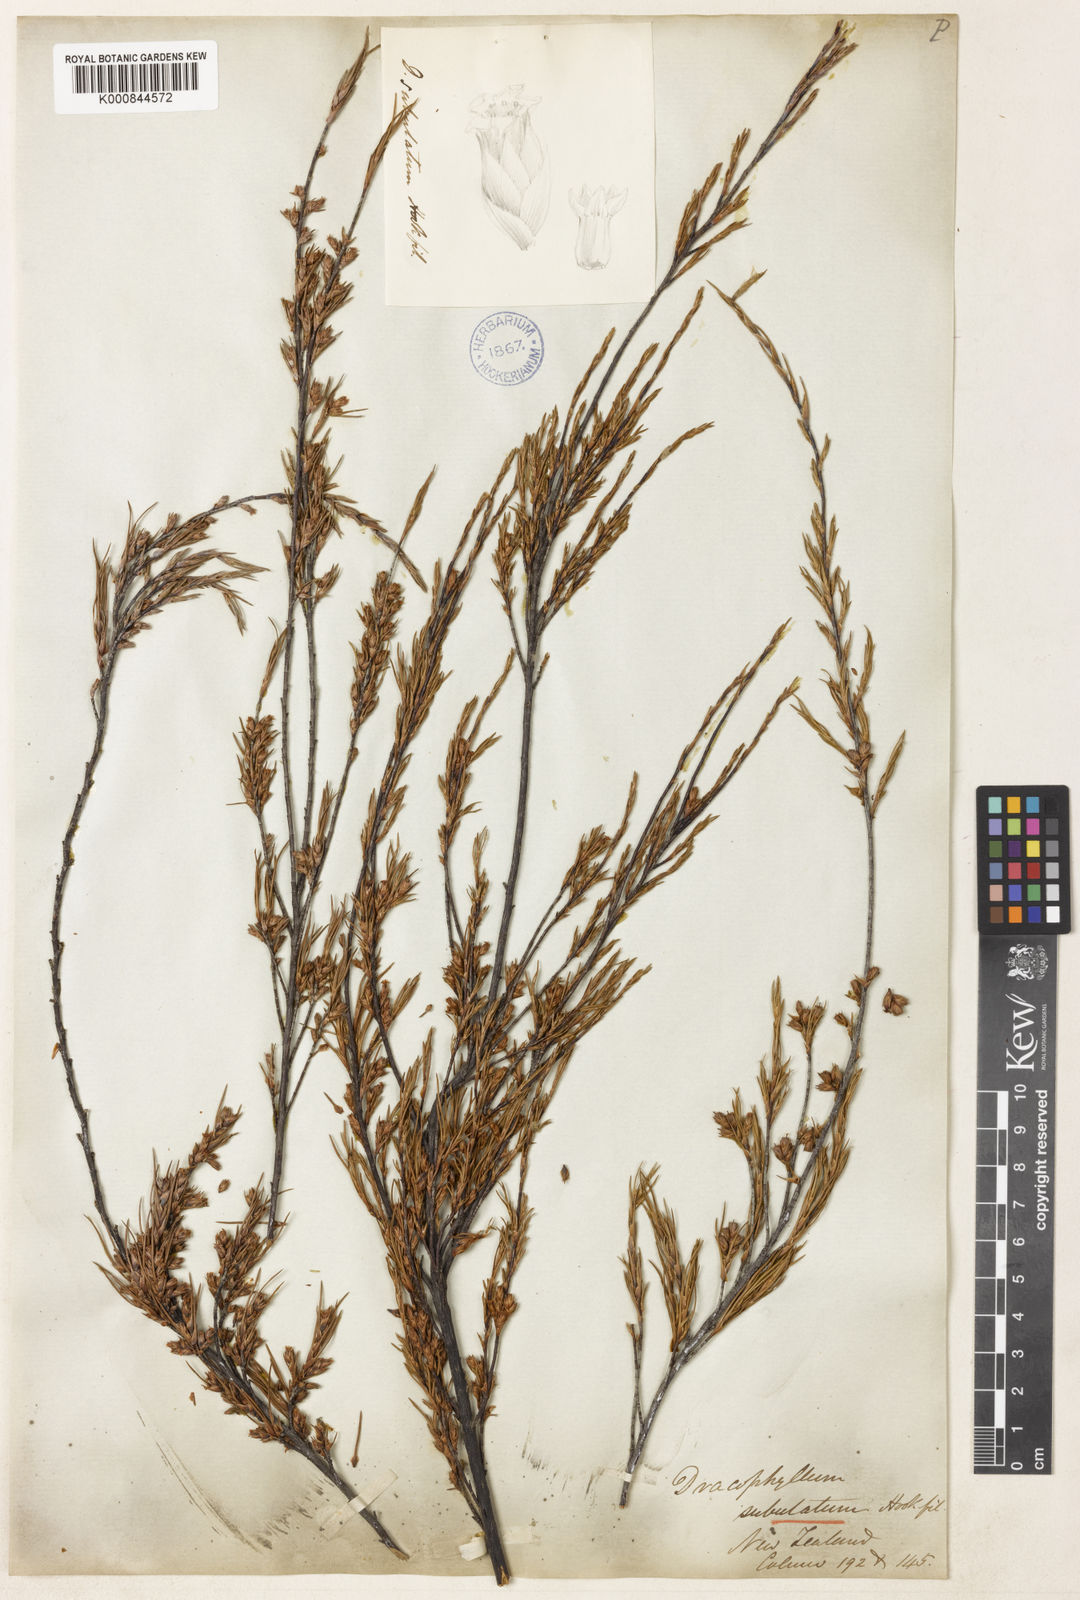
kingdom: Plantae
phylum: Tracheophyta
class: Magnoliopsida
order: Ericales
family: Ericaceae
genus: Dracophyllum
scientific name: Dracophyllum subulatum
